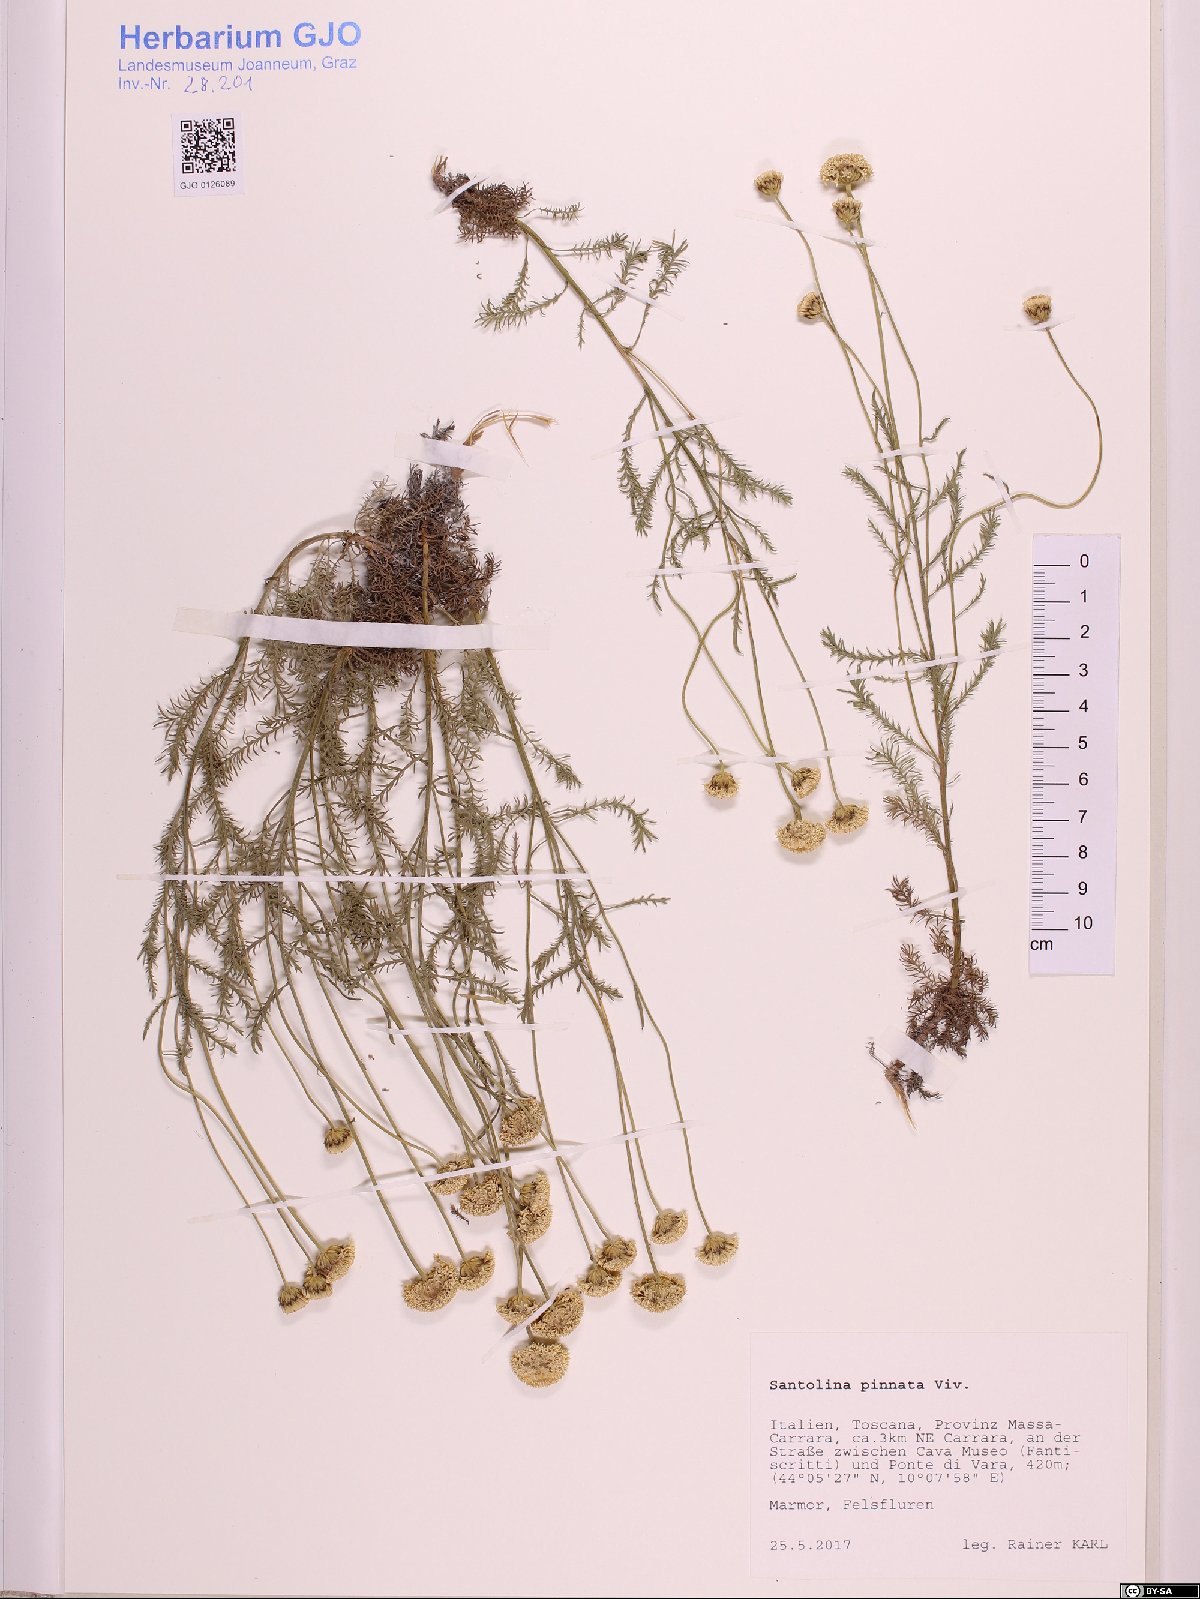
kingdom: Plantae
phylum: Tracheophyta
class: Magnoliopsida
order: Asterales
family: Asteraceae
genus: Santolina
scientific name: Santolina pinnata
